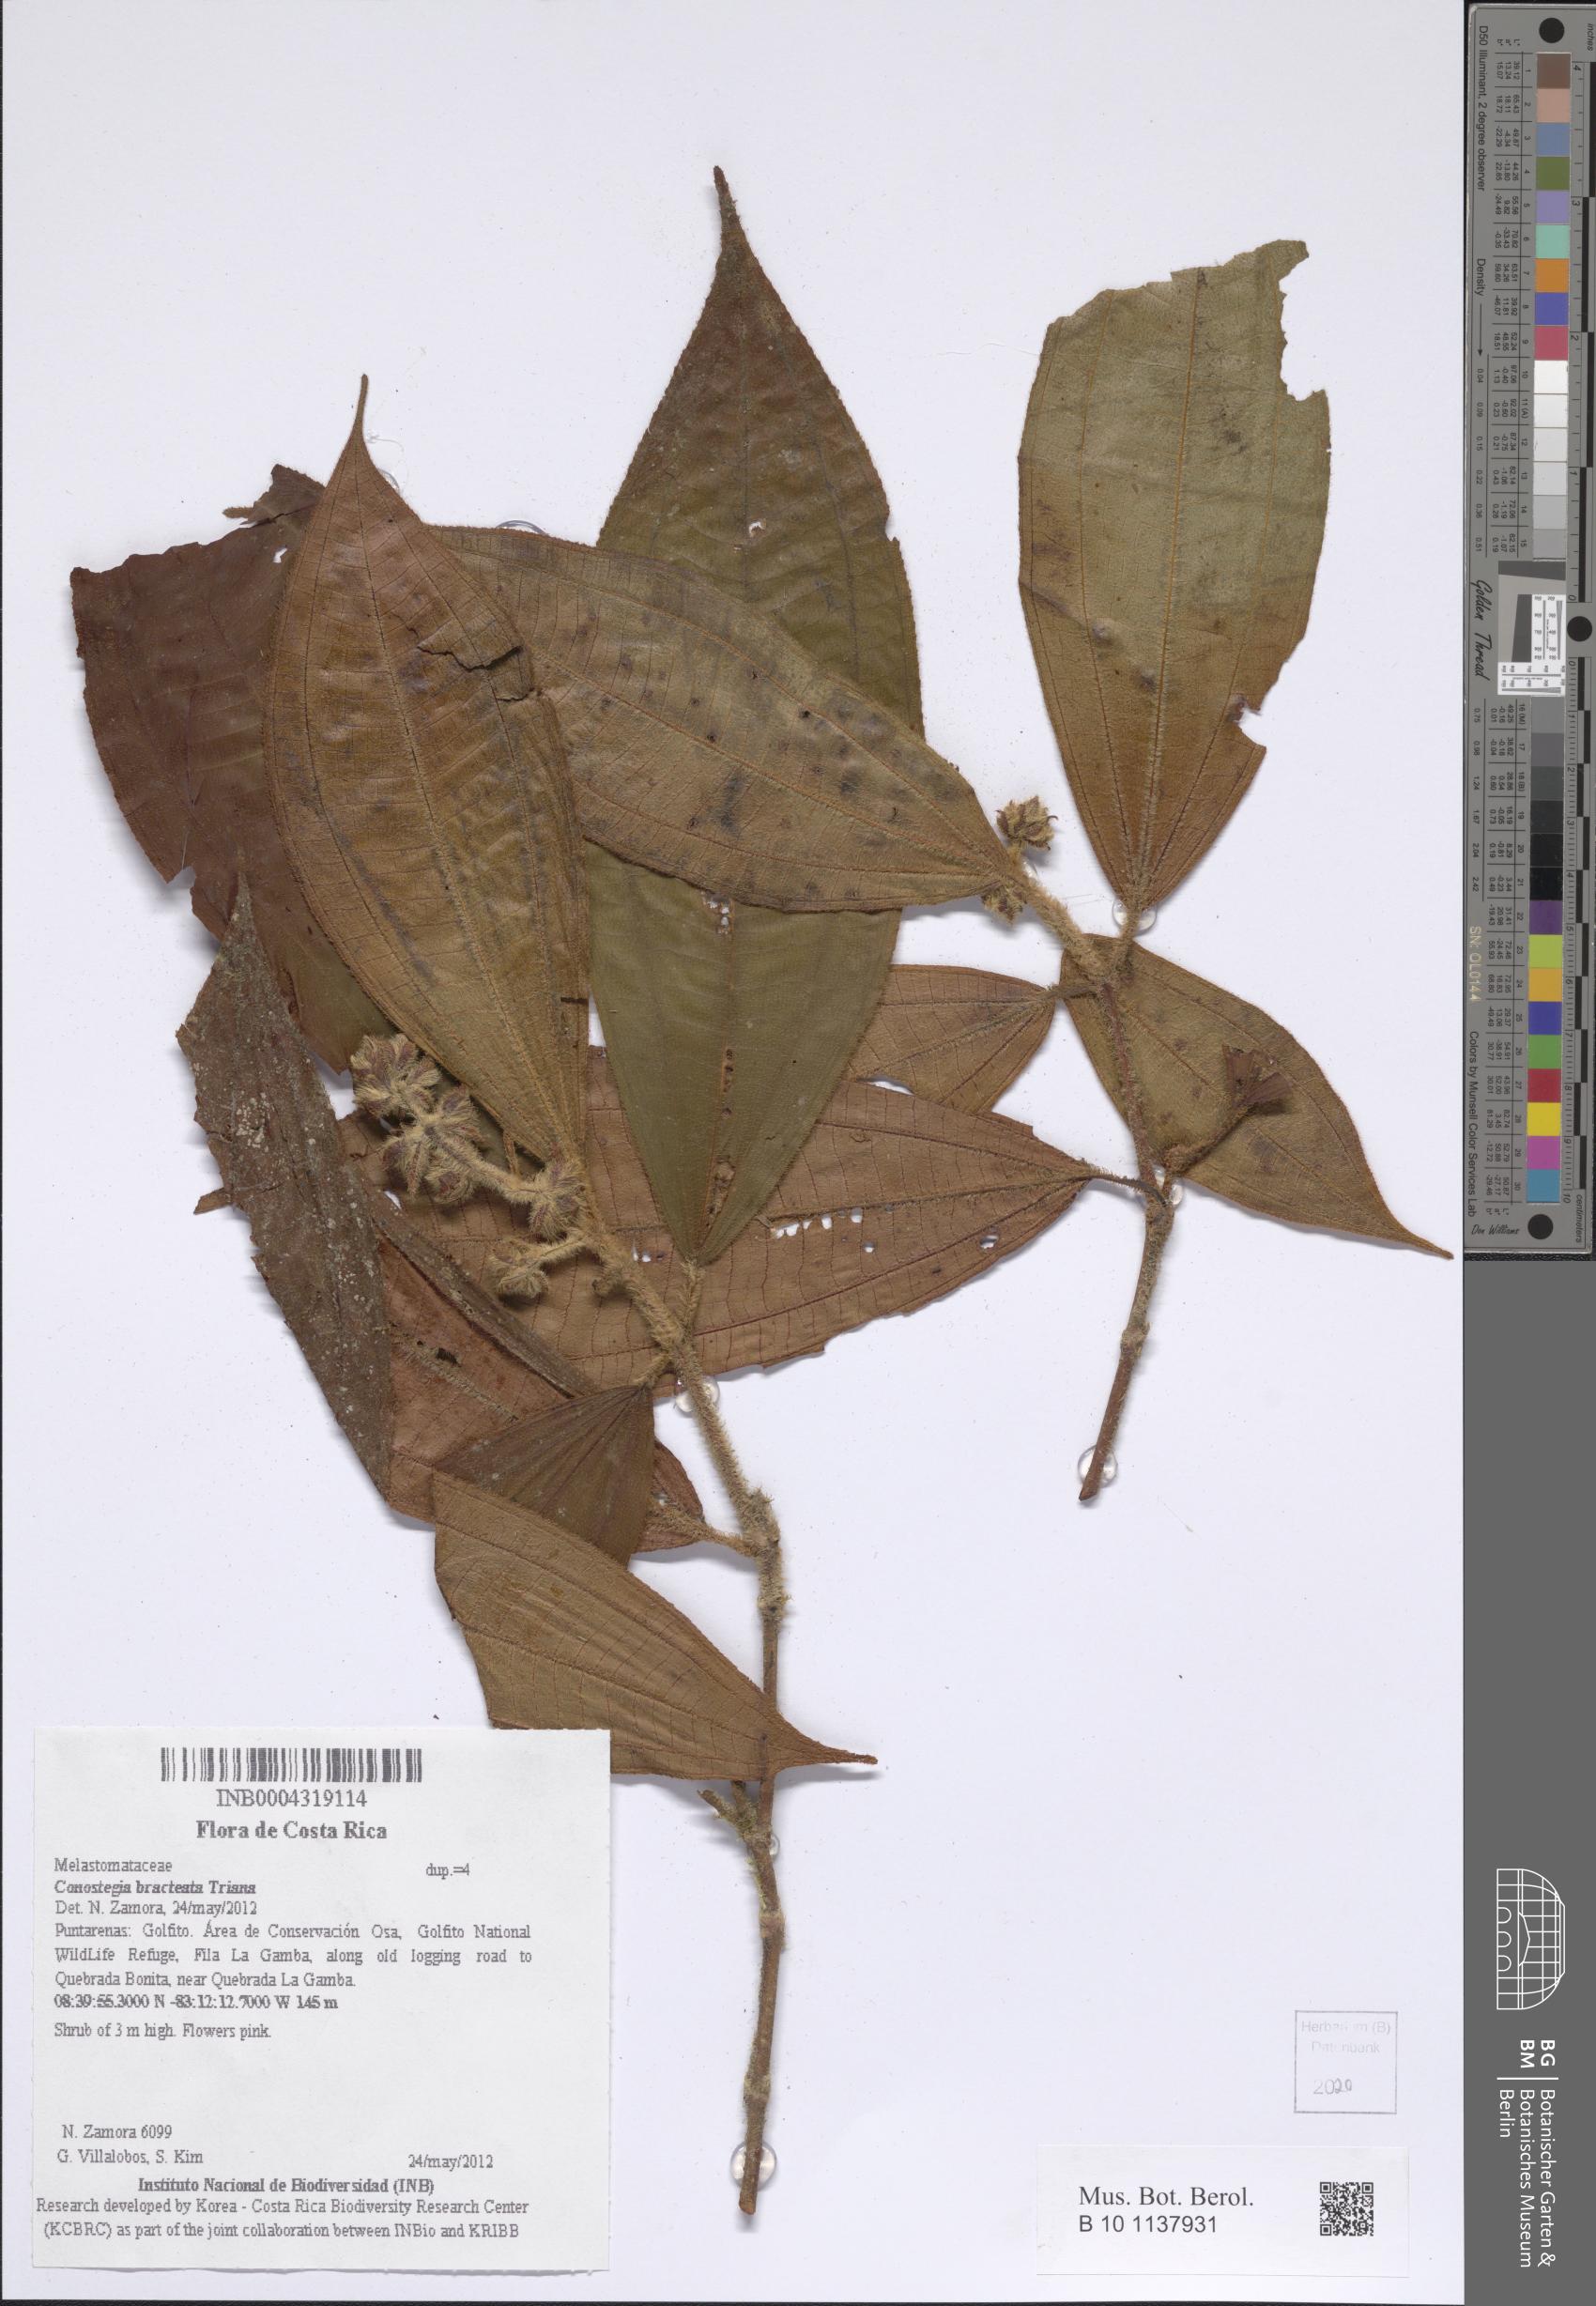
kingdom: Plantae
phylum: Tracheophyta
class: Magnoliopsida
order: Myrtales
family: Melastomataceae
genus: Miconia
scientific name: Miconia conobracteata
